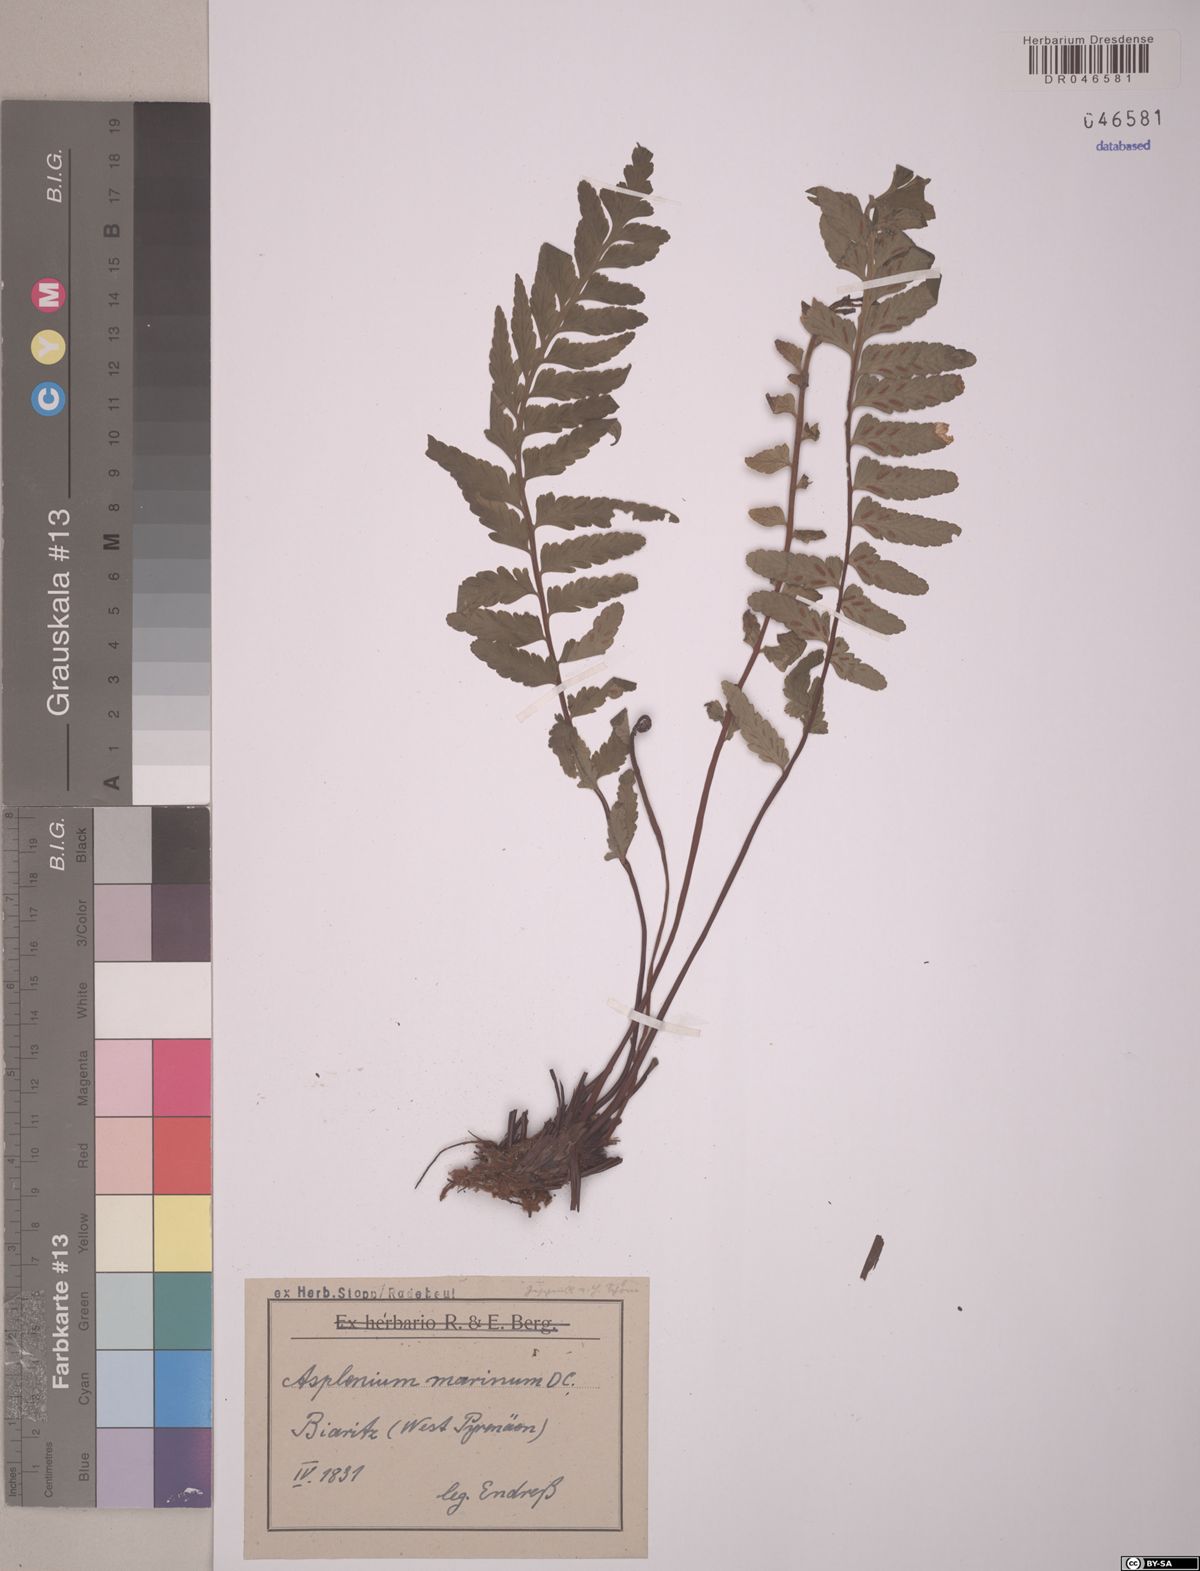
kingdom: Plantae
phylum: Tracheophyta
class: Polypodiopsida
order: Polypodiales
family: Aspleniaceae
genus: Asplenium
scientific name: Asplenium marinum
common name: Sea spleenwort
